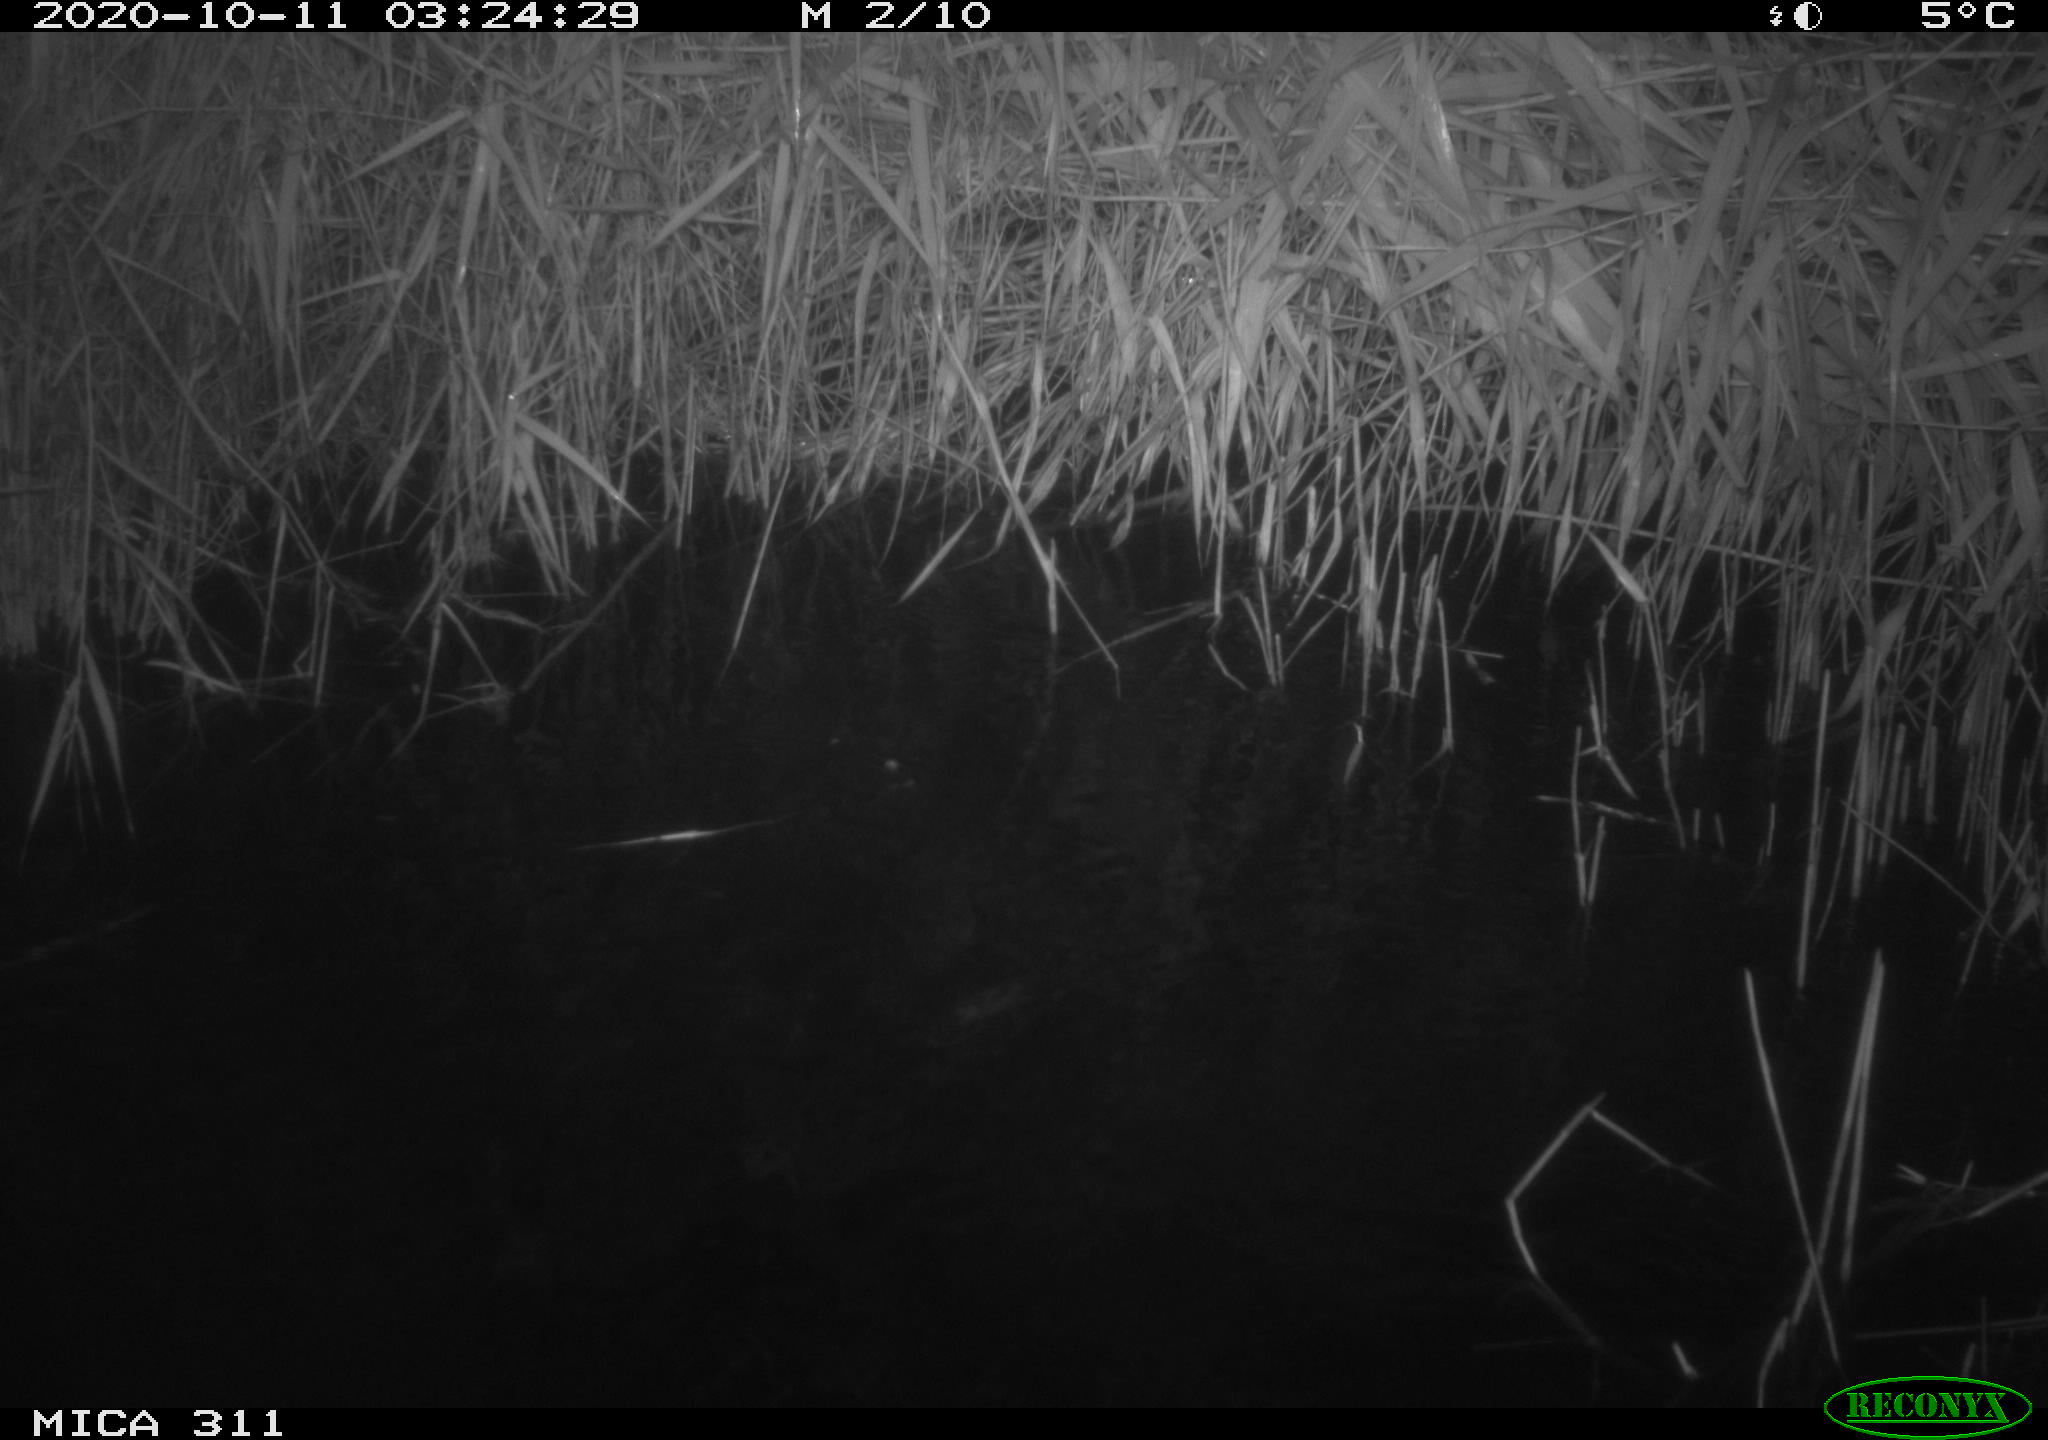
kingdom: Animalia
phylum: Chordata
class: Mammalia
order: Rodentia
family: Muridae
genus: Rattus
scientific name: Rattus norvegicus
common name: Brown rat
